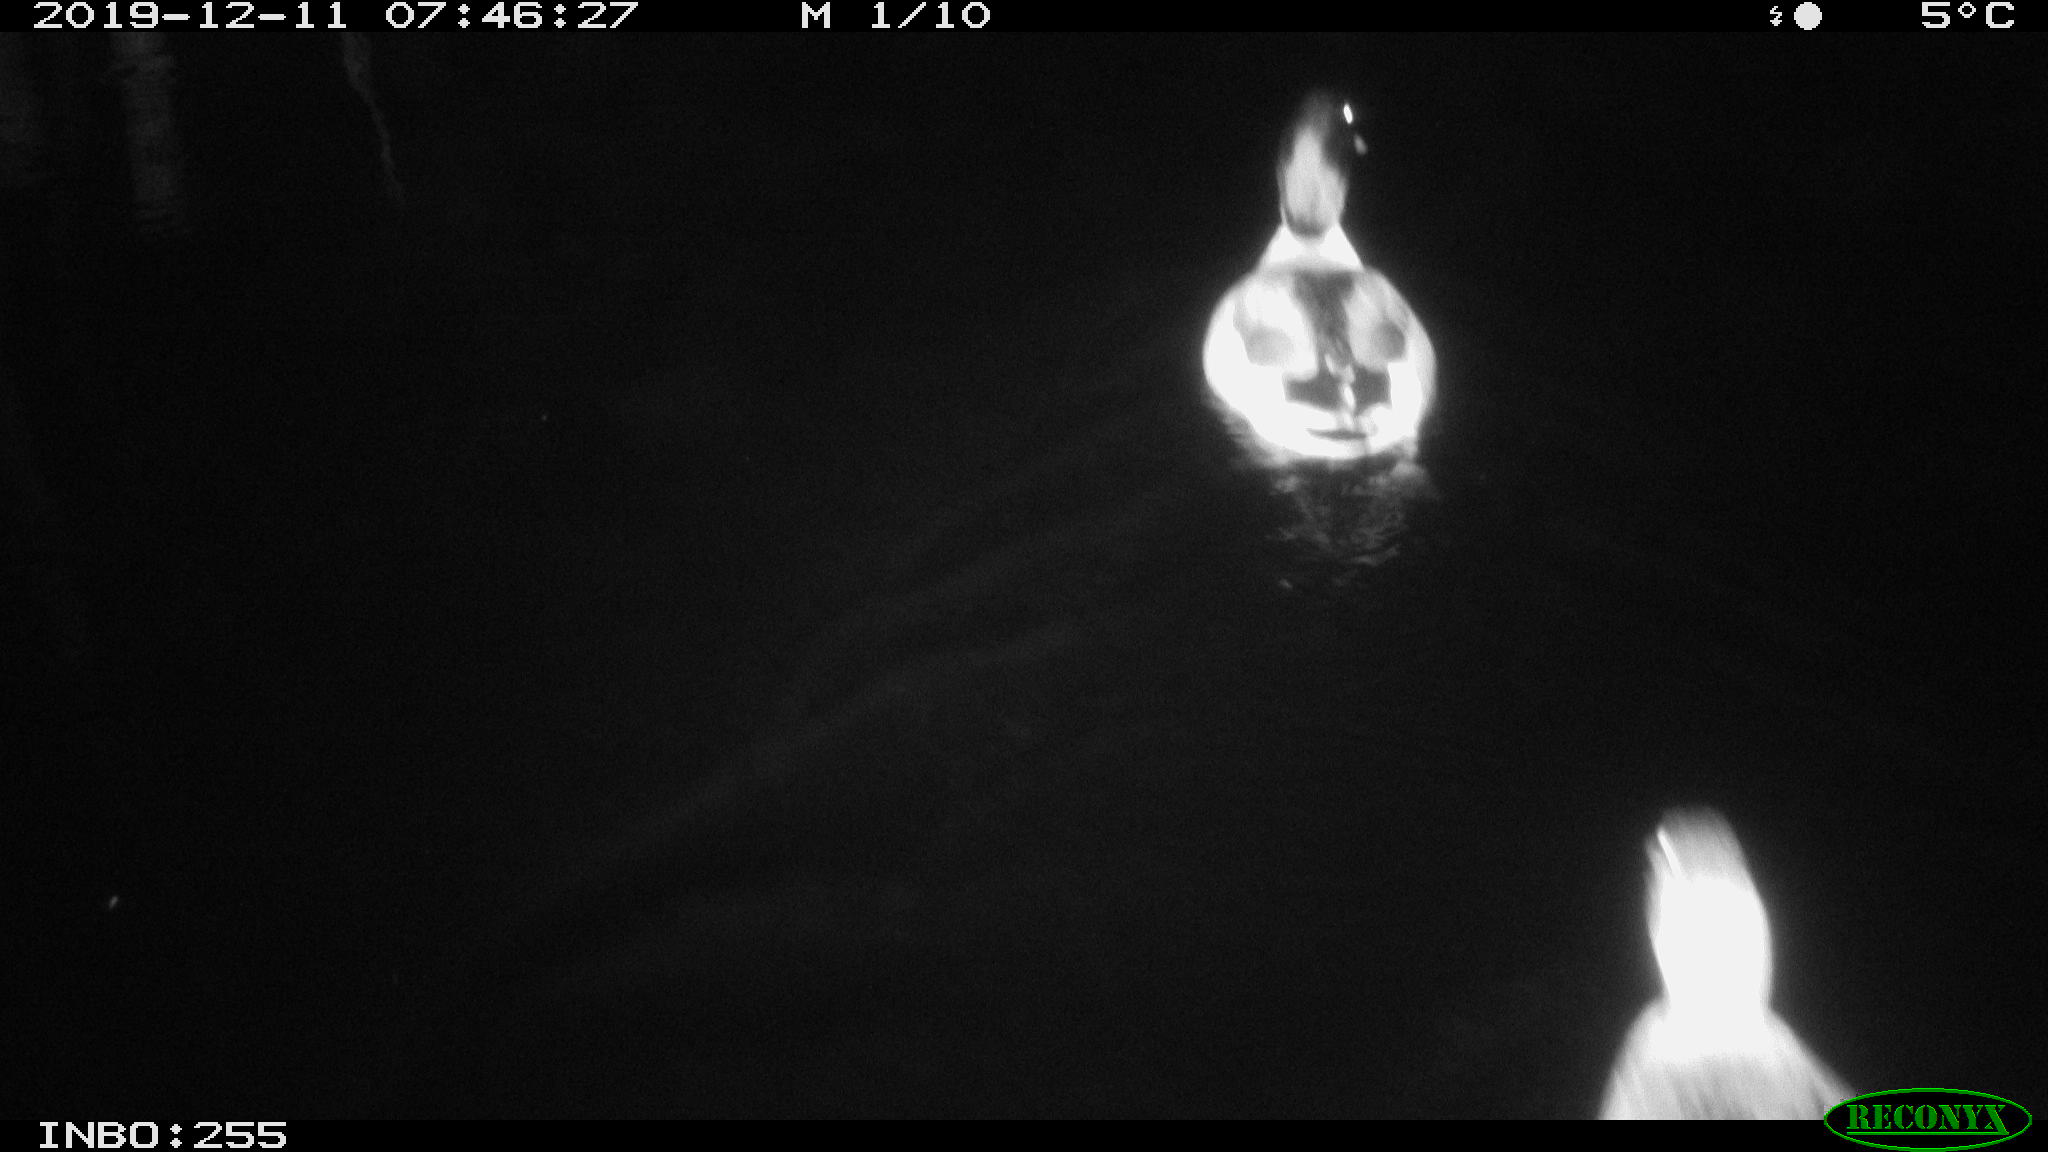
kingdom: Animalia
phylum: Chordata
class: Aves
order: Anseriformes
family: Anatidae
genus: Anas
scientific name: Anas platyrhynchos
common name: Mallard
